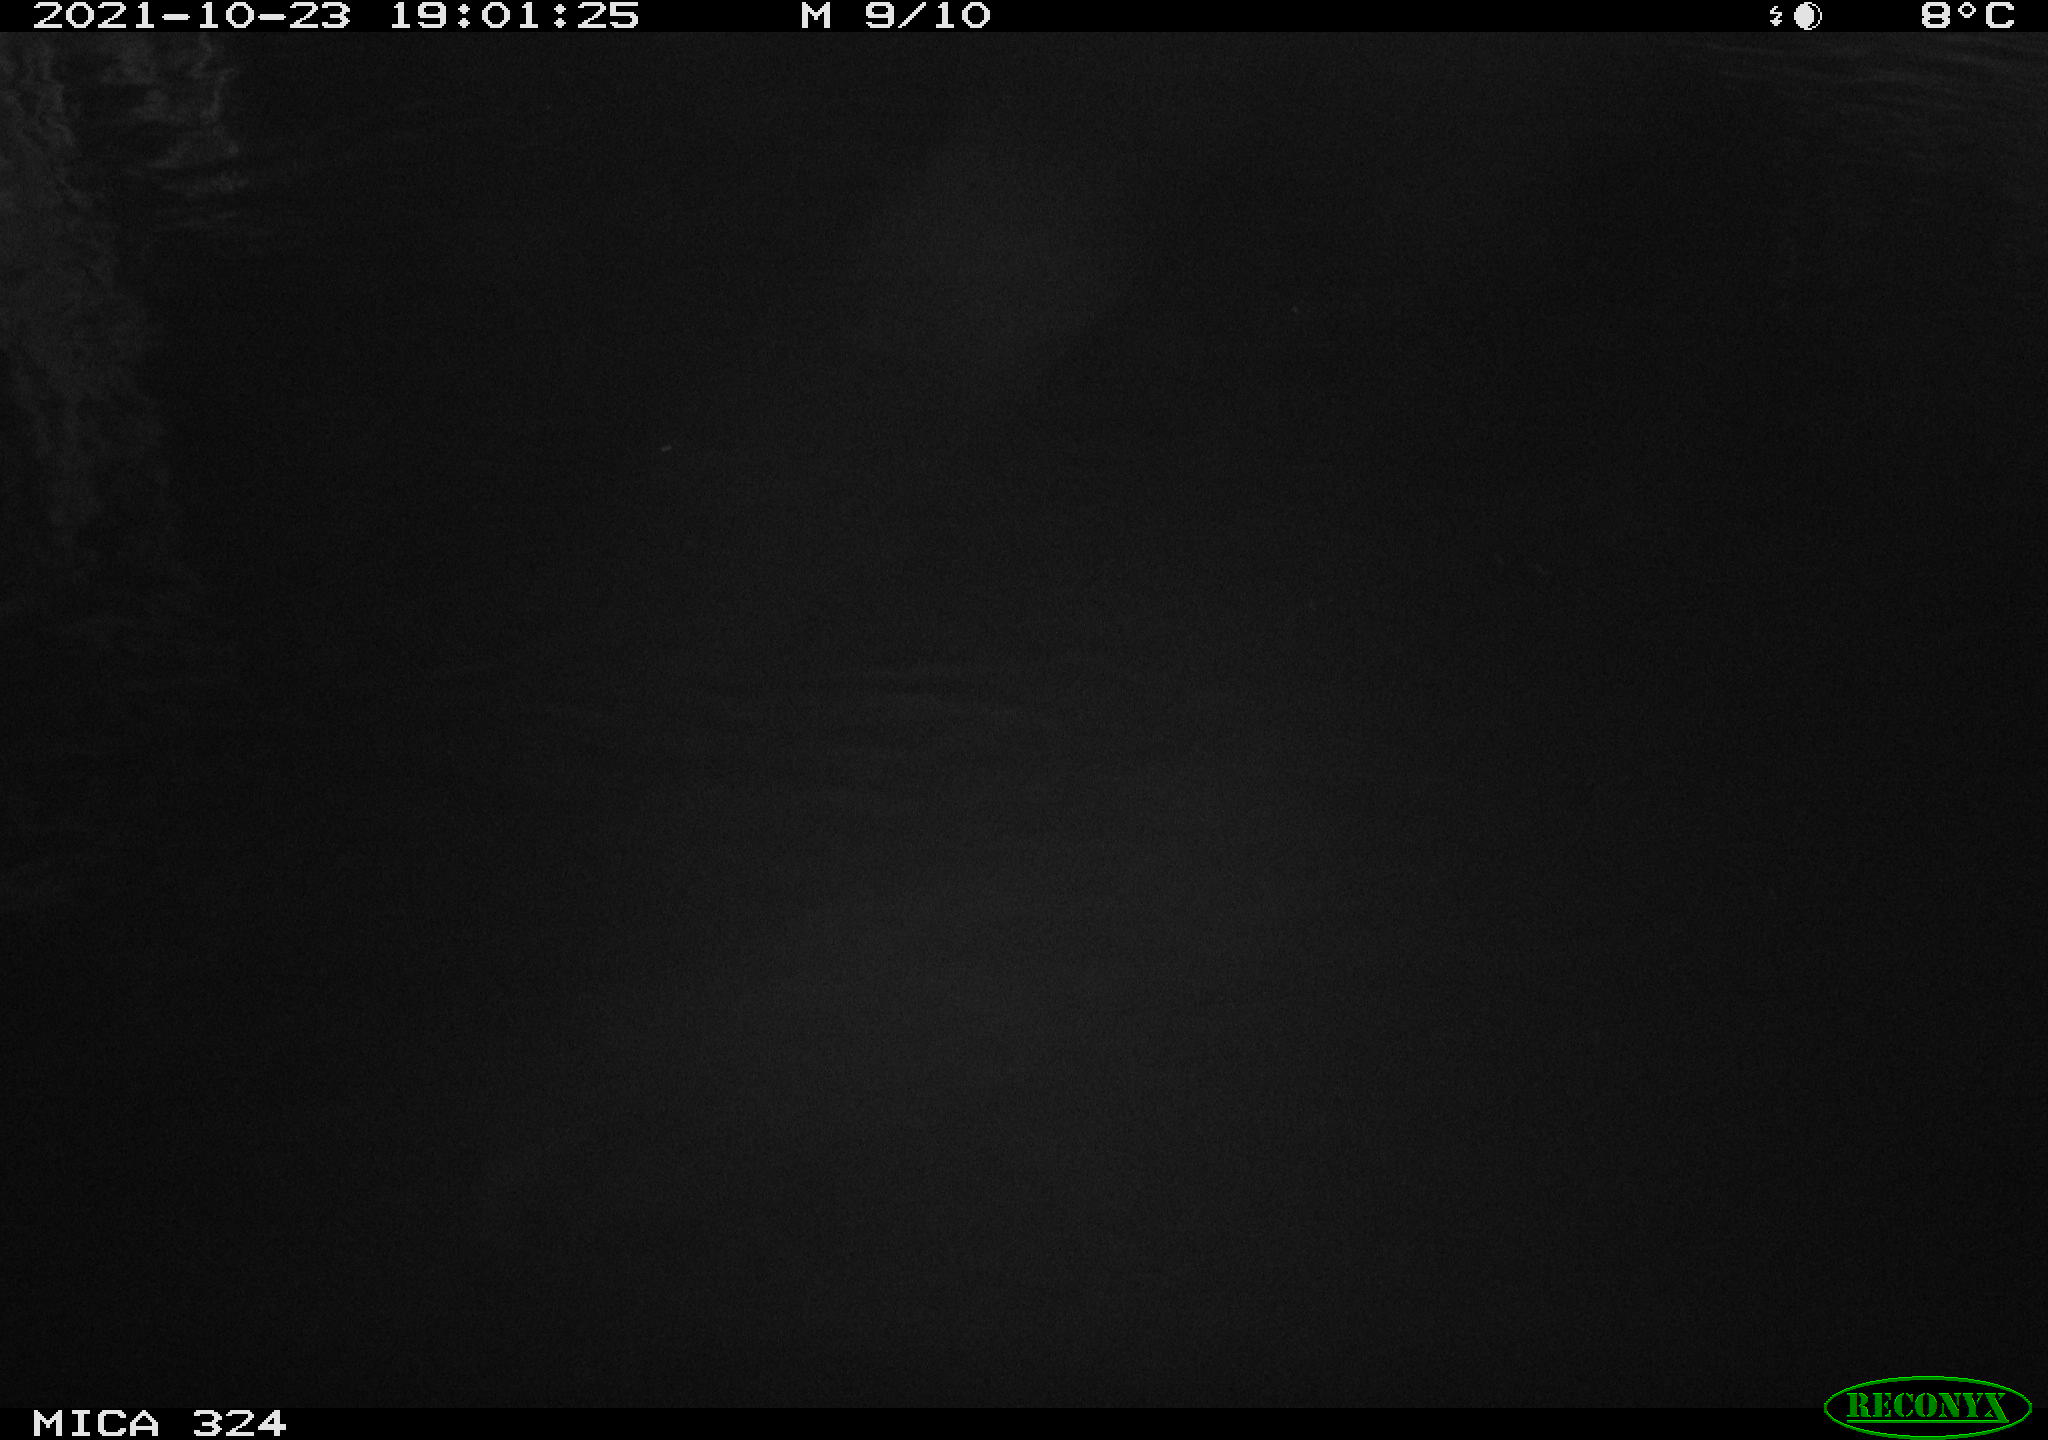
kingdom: Animalia
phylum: Chordata
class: Mammalia
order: Rodentia
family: Cricetidae
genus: Ondatra
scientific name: Ondatra zibethicus
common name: Muskrat
